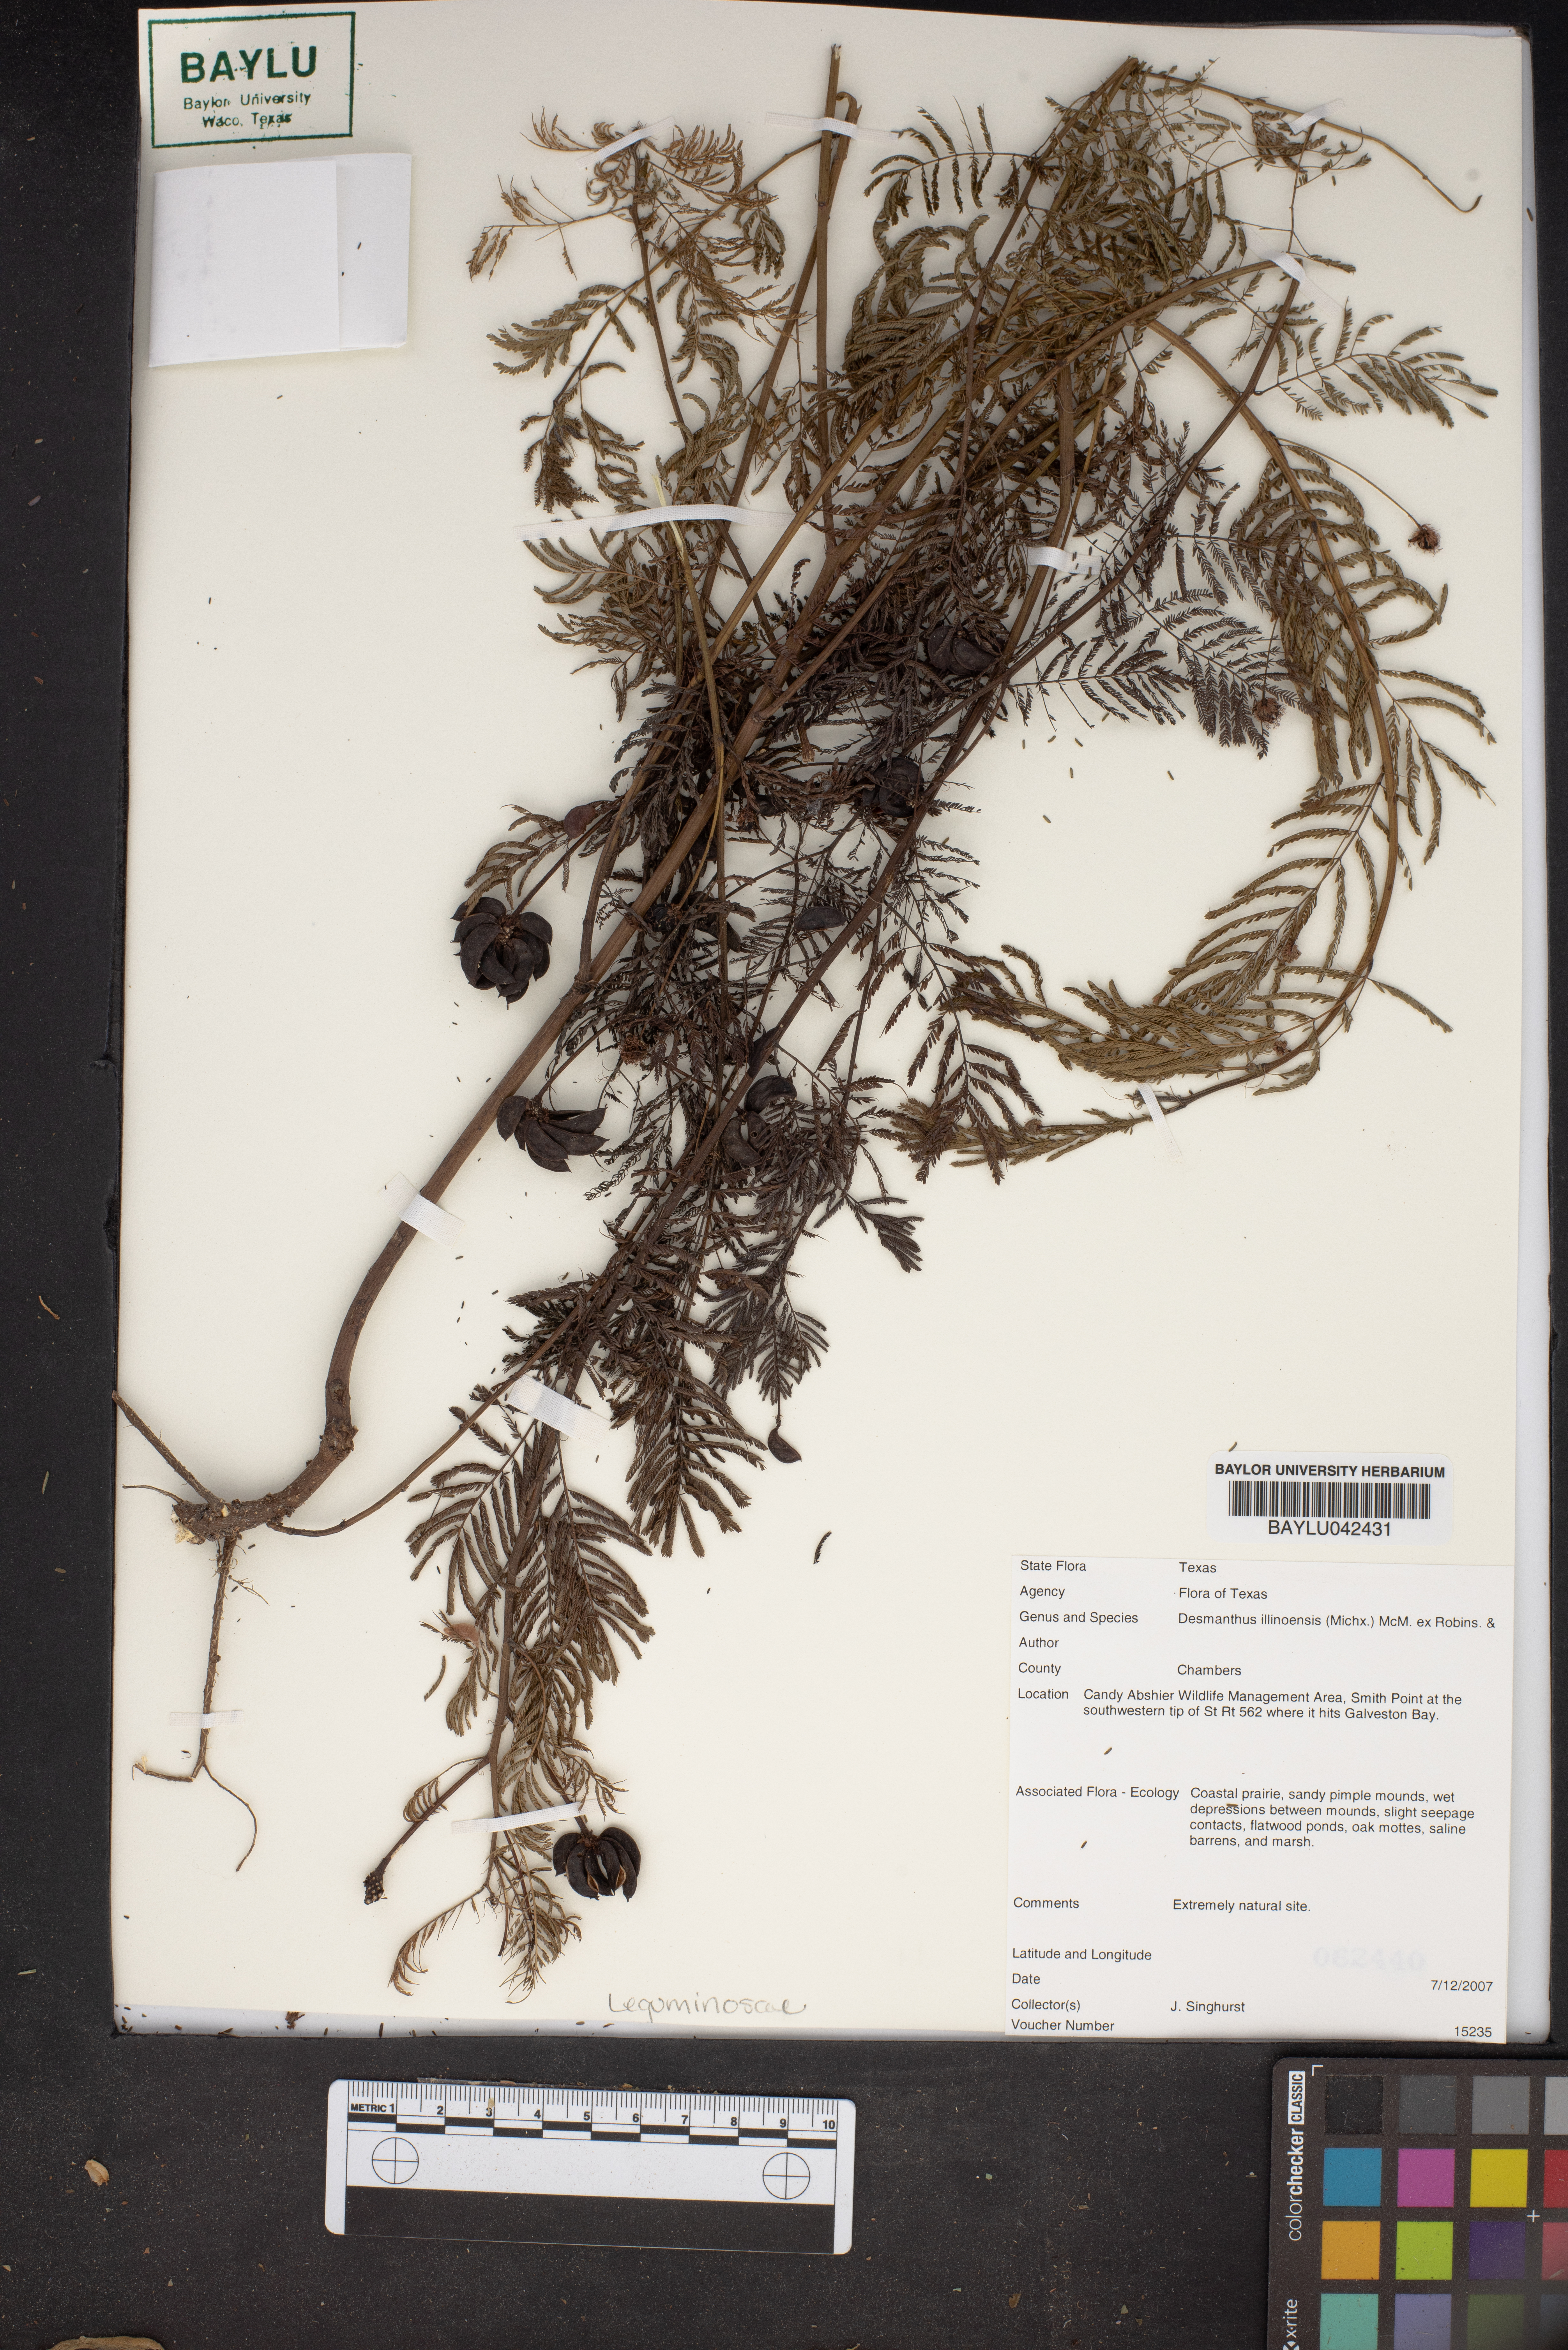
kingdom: Plantae
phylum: Tracheophyta
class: Magnoliopsida
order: Fabales
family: Fabaceae
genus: Desmanthus
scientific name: Desmanthus illinoensis
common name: Illinois bundle-flower
